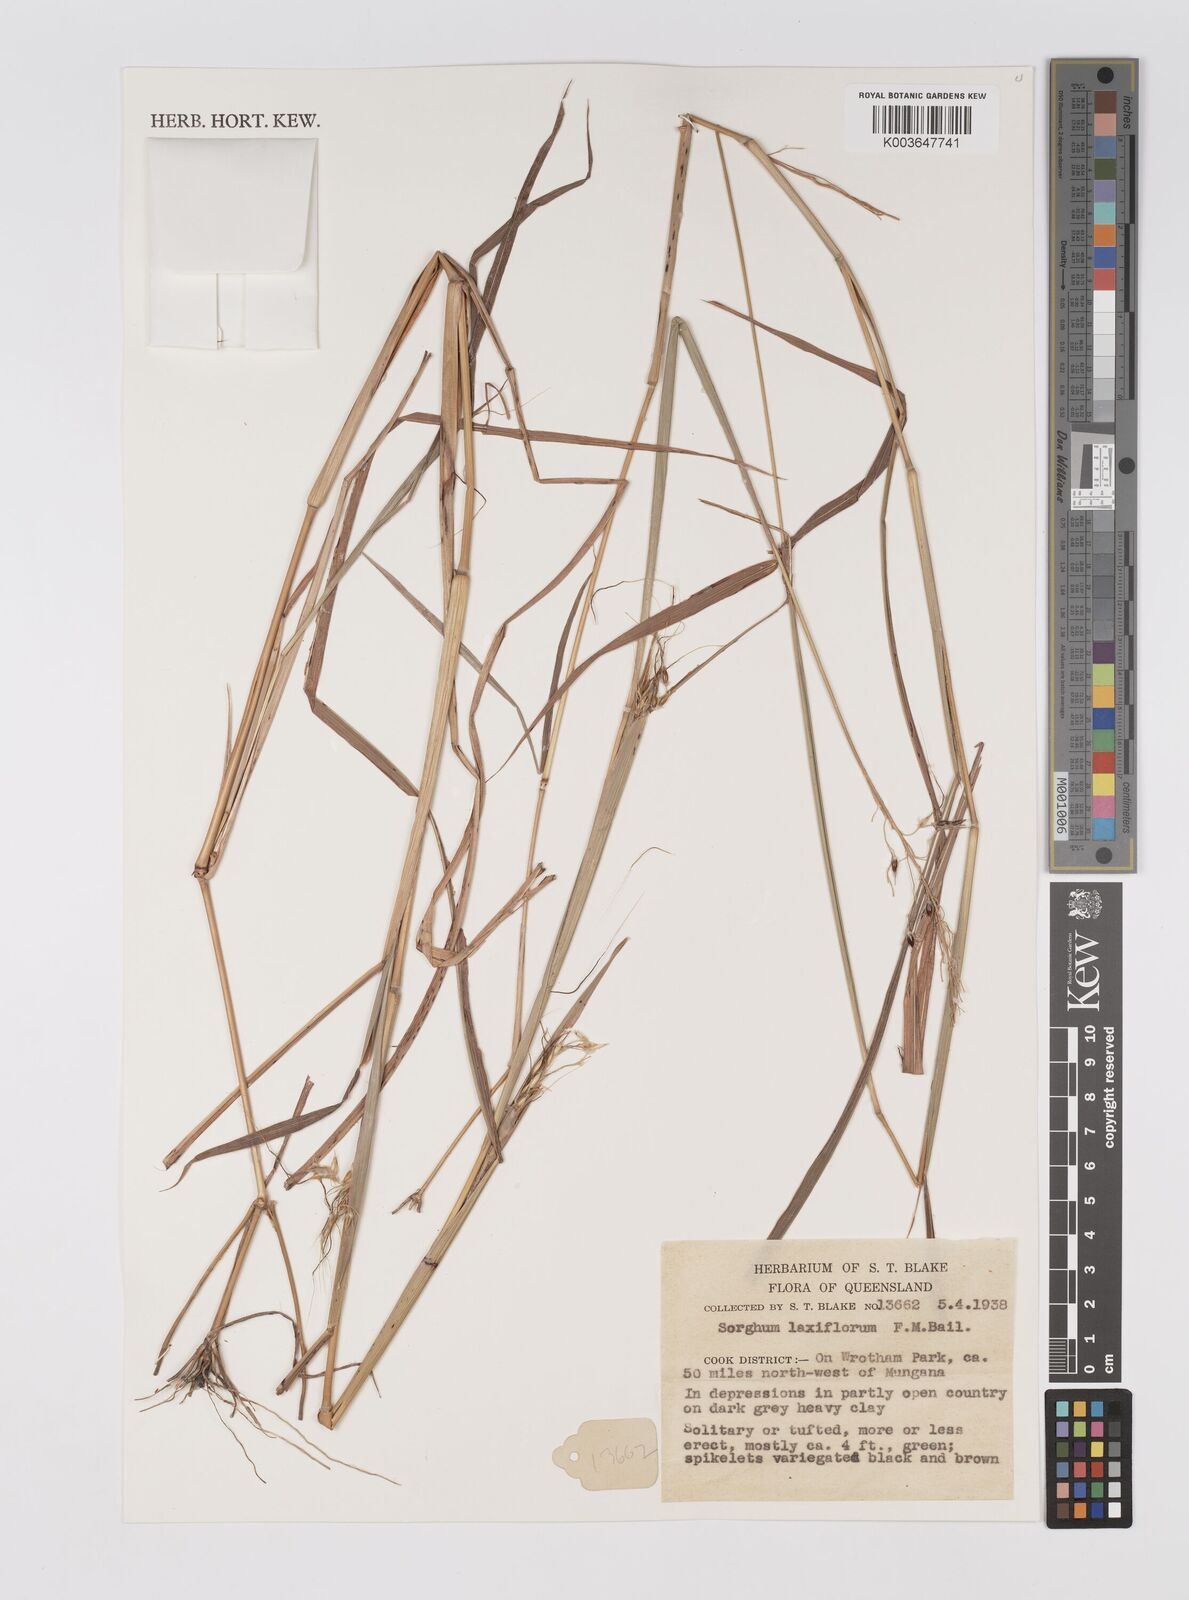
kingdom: Plantae
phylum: Tracheophyta
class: Liliopsida
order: Poales
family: Poaceae
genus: Sorghum
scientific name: Sorghum laxiflorum
